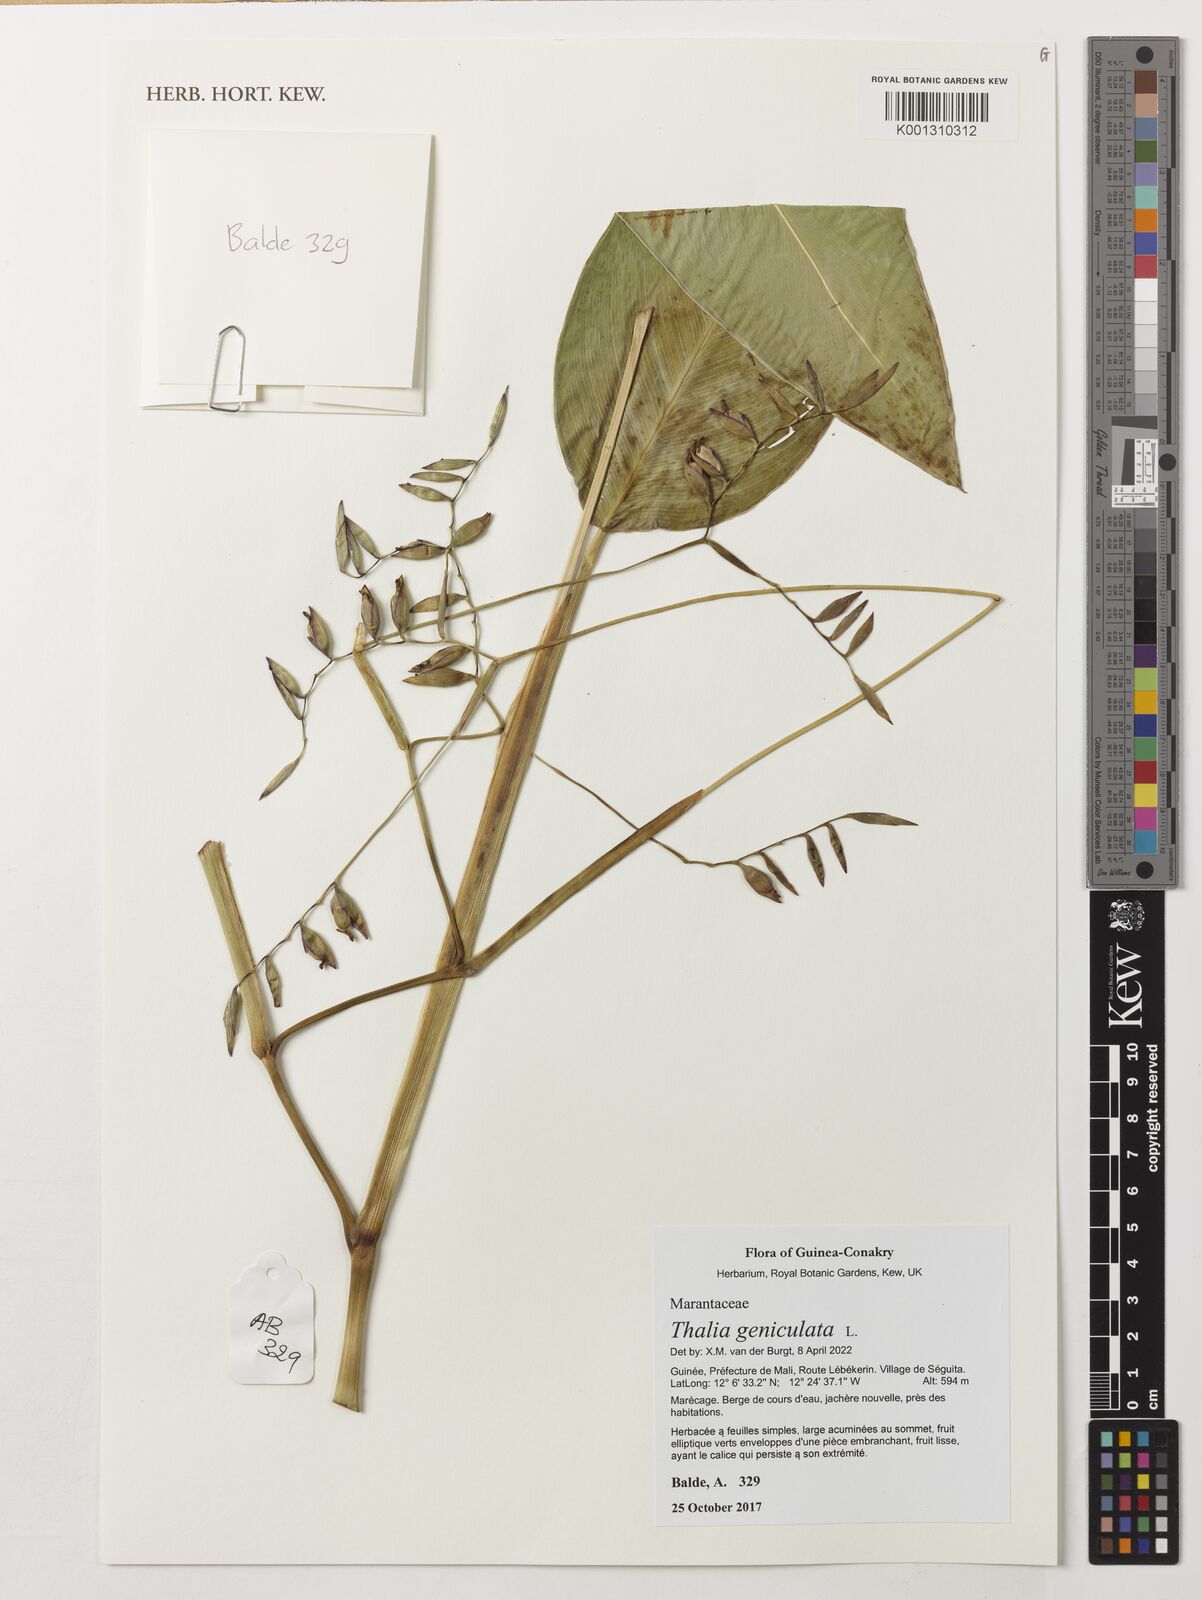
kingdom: Plantae
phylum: Tracheophyta
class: Liliopsida
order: Zingiberales
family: Marantaceae
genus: Thalia
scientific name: Thalia geniculata
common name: Arrowroot
